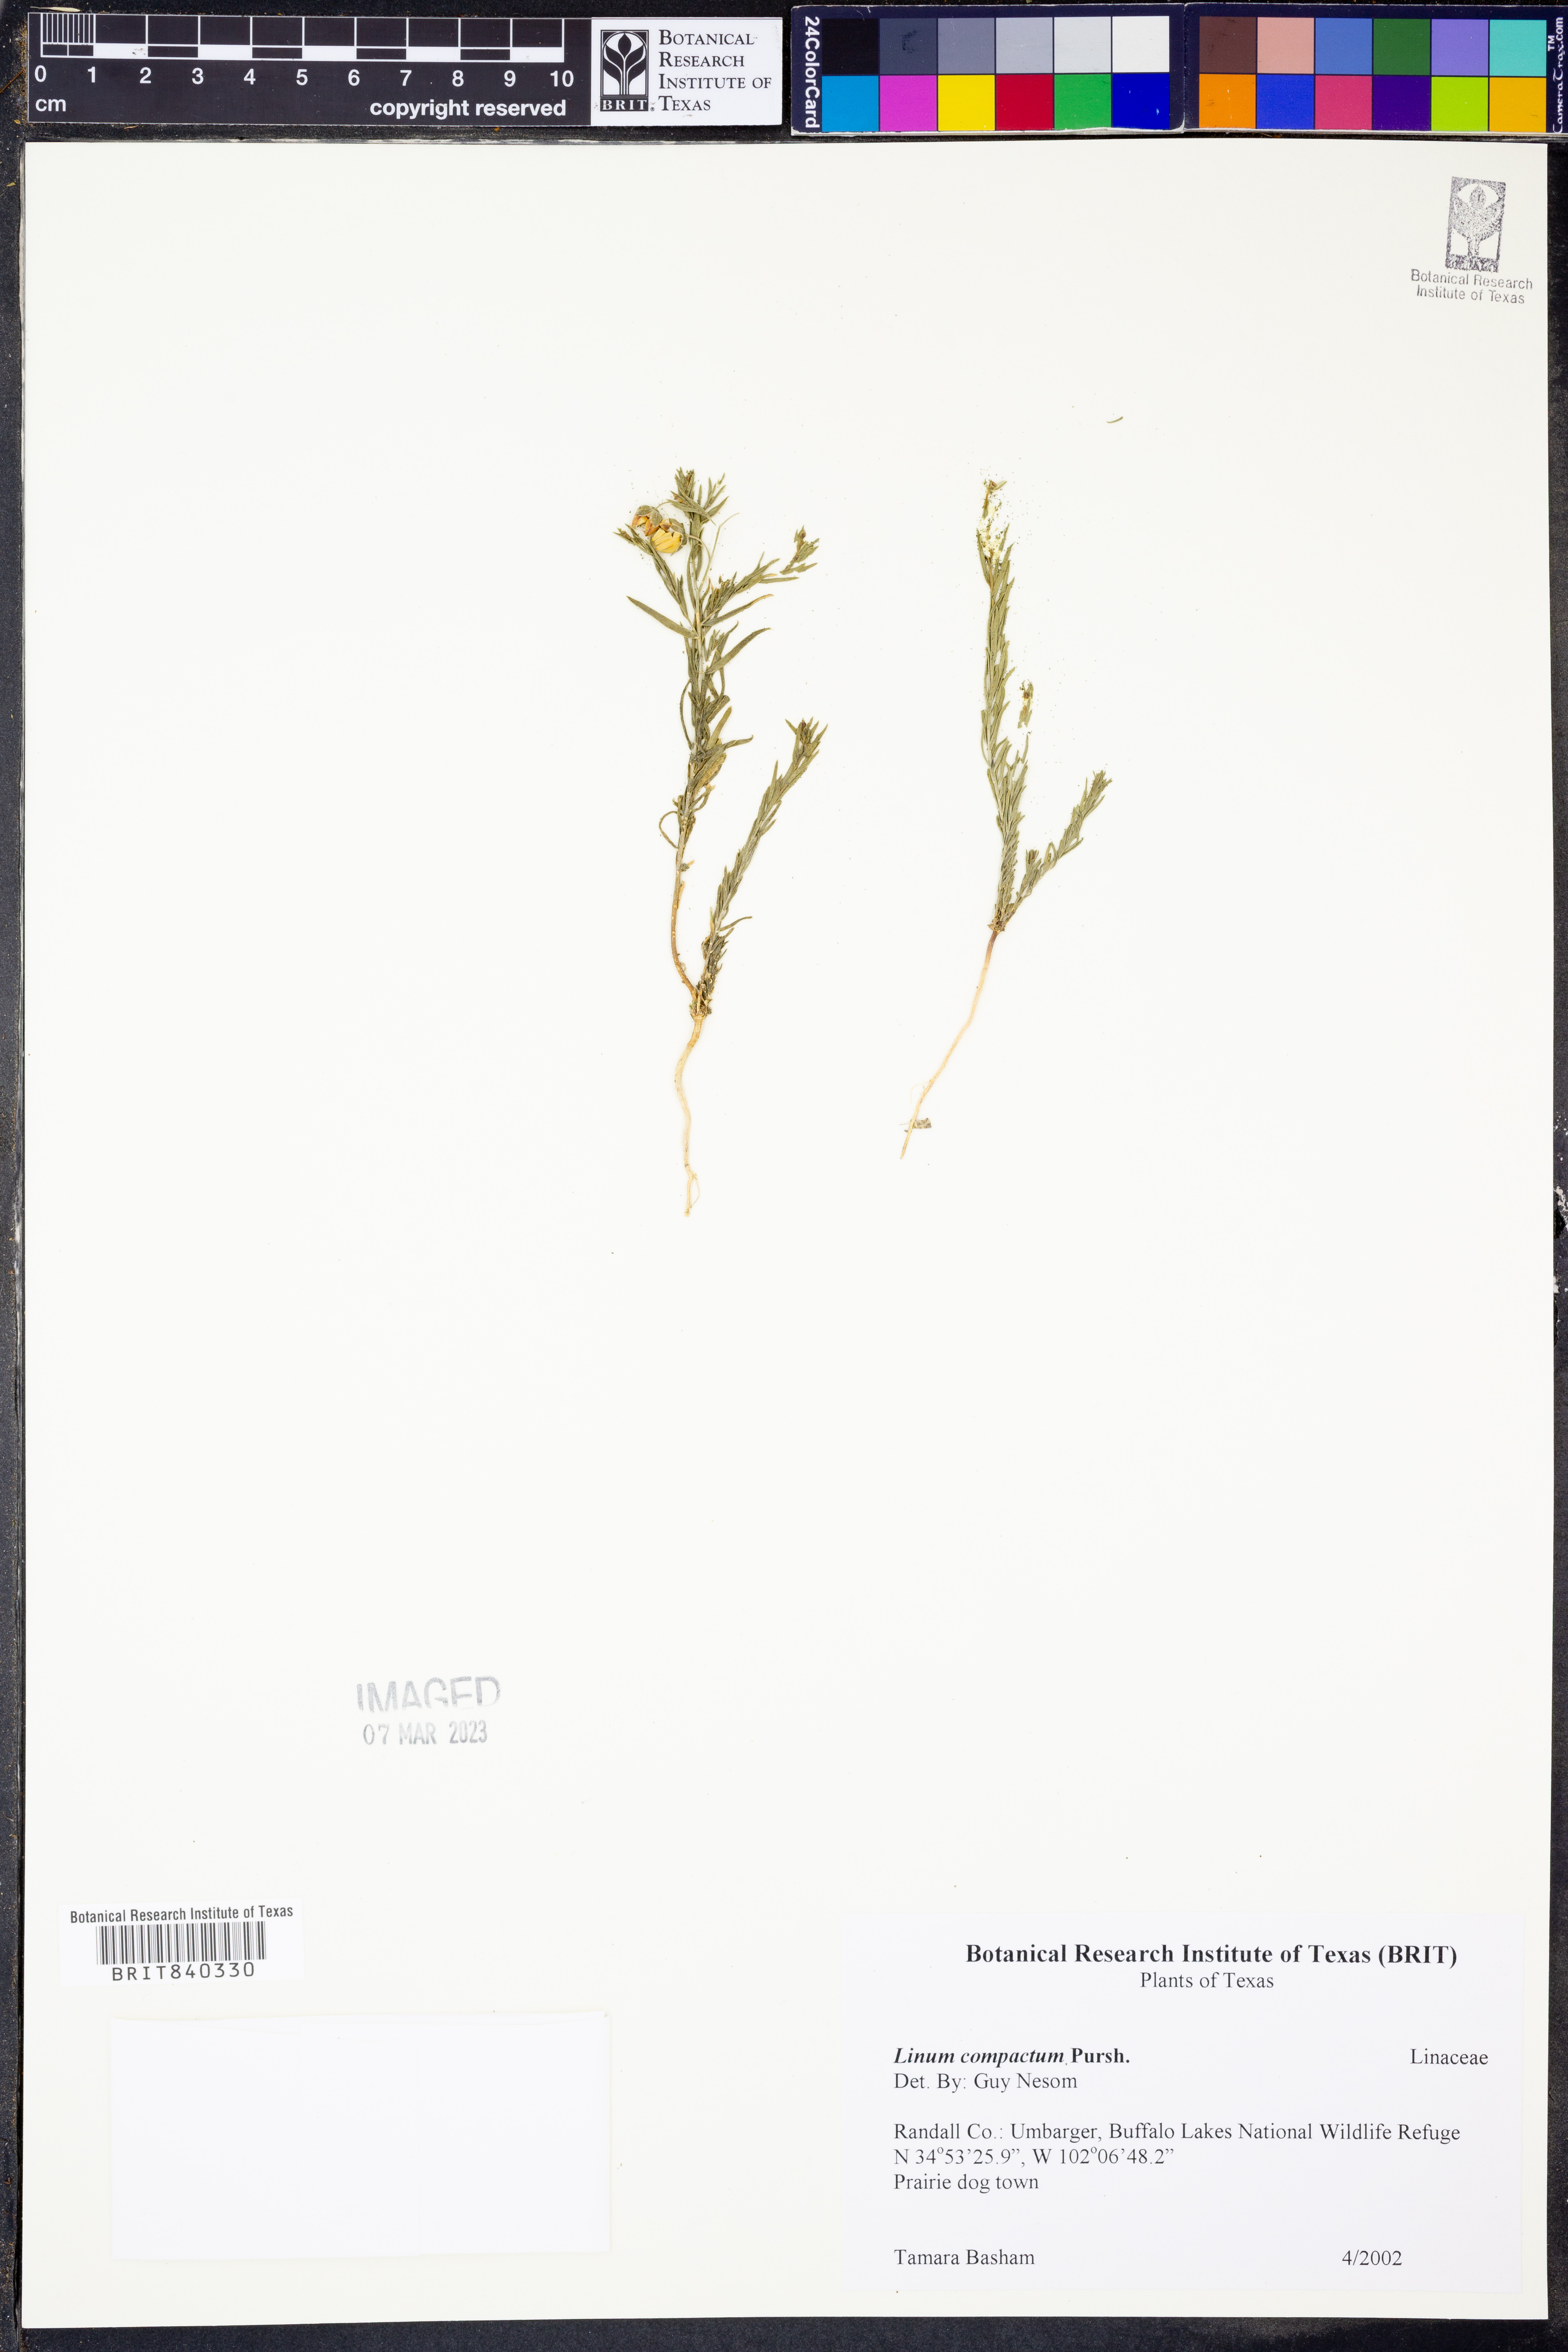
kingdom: Plantae
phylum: Tracheophyta
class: Magnoliopsida
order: Malpighiales
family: Linaceae
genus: Linum
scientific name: Linum compactum
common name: Wyoming flax
